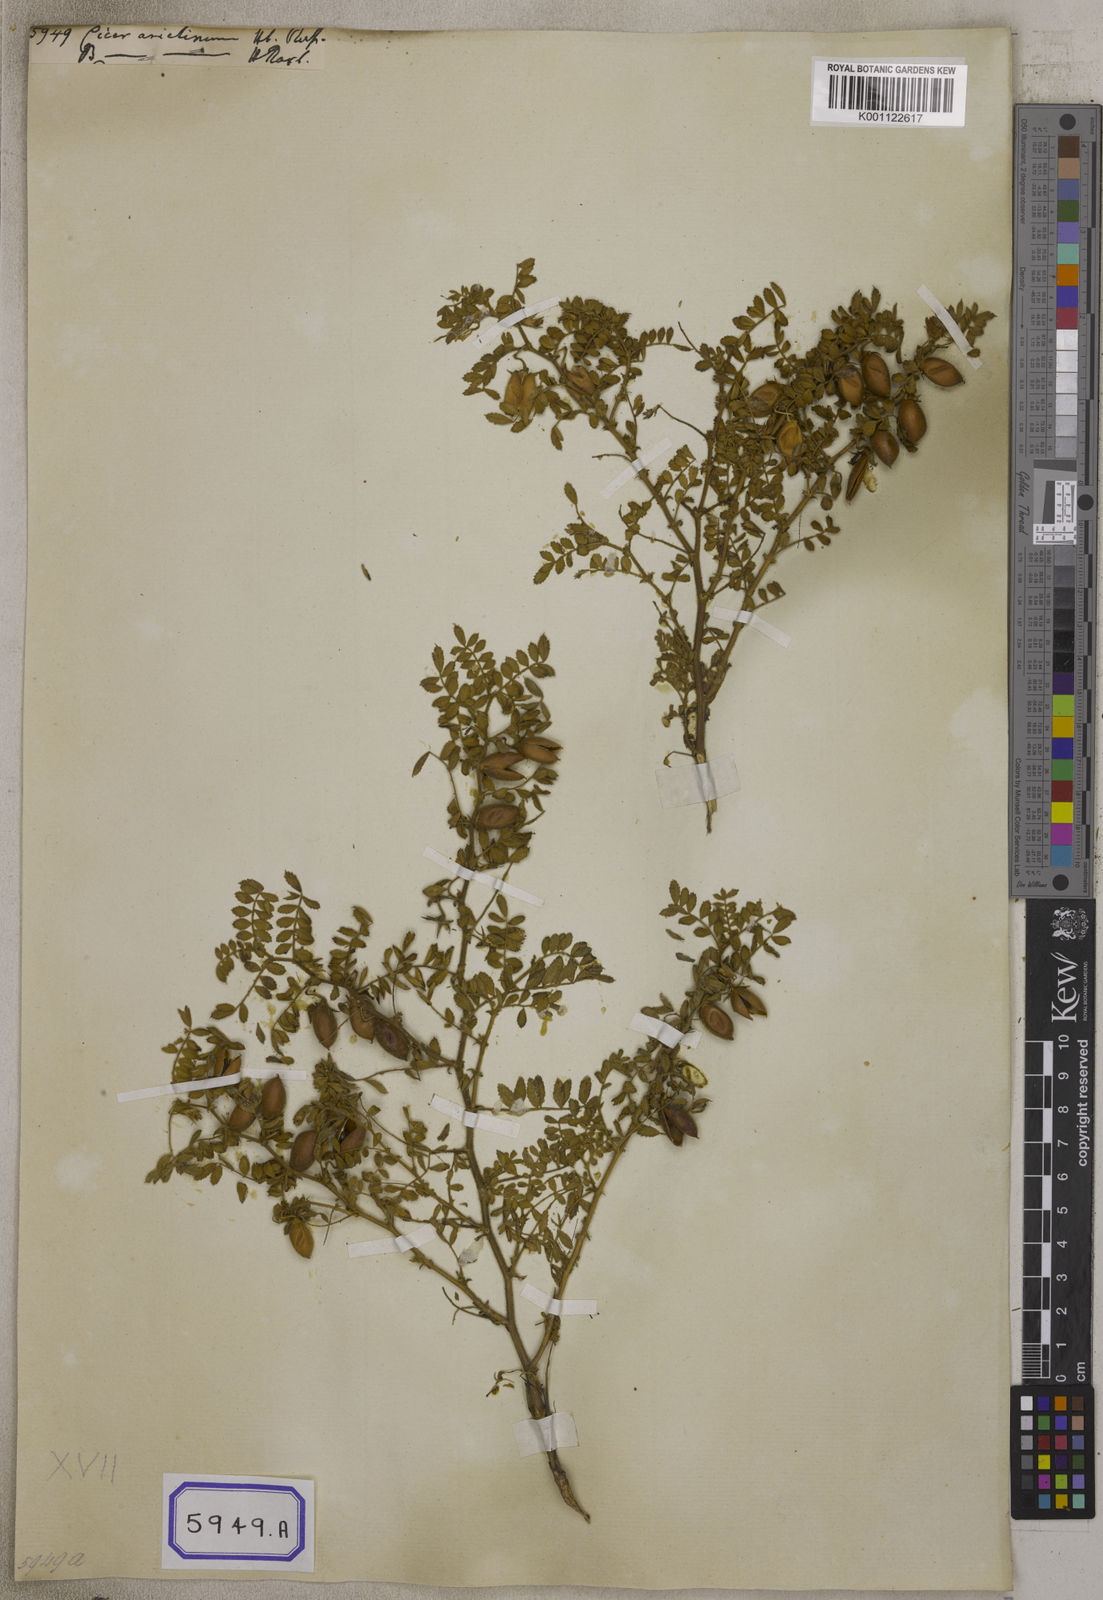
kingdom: Plantae
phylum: Tracheophyta
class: Magnoliopsida
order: Fabales
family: Fabaceae
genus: Cicer
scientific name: Cicer arietinum
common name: Chick pea
